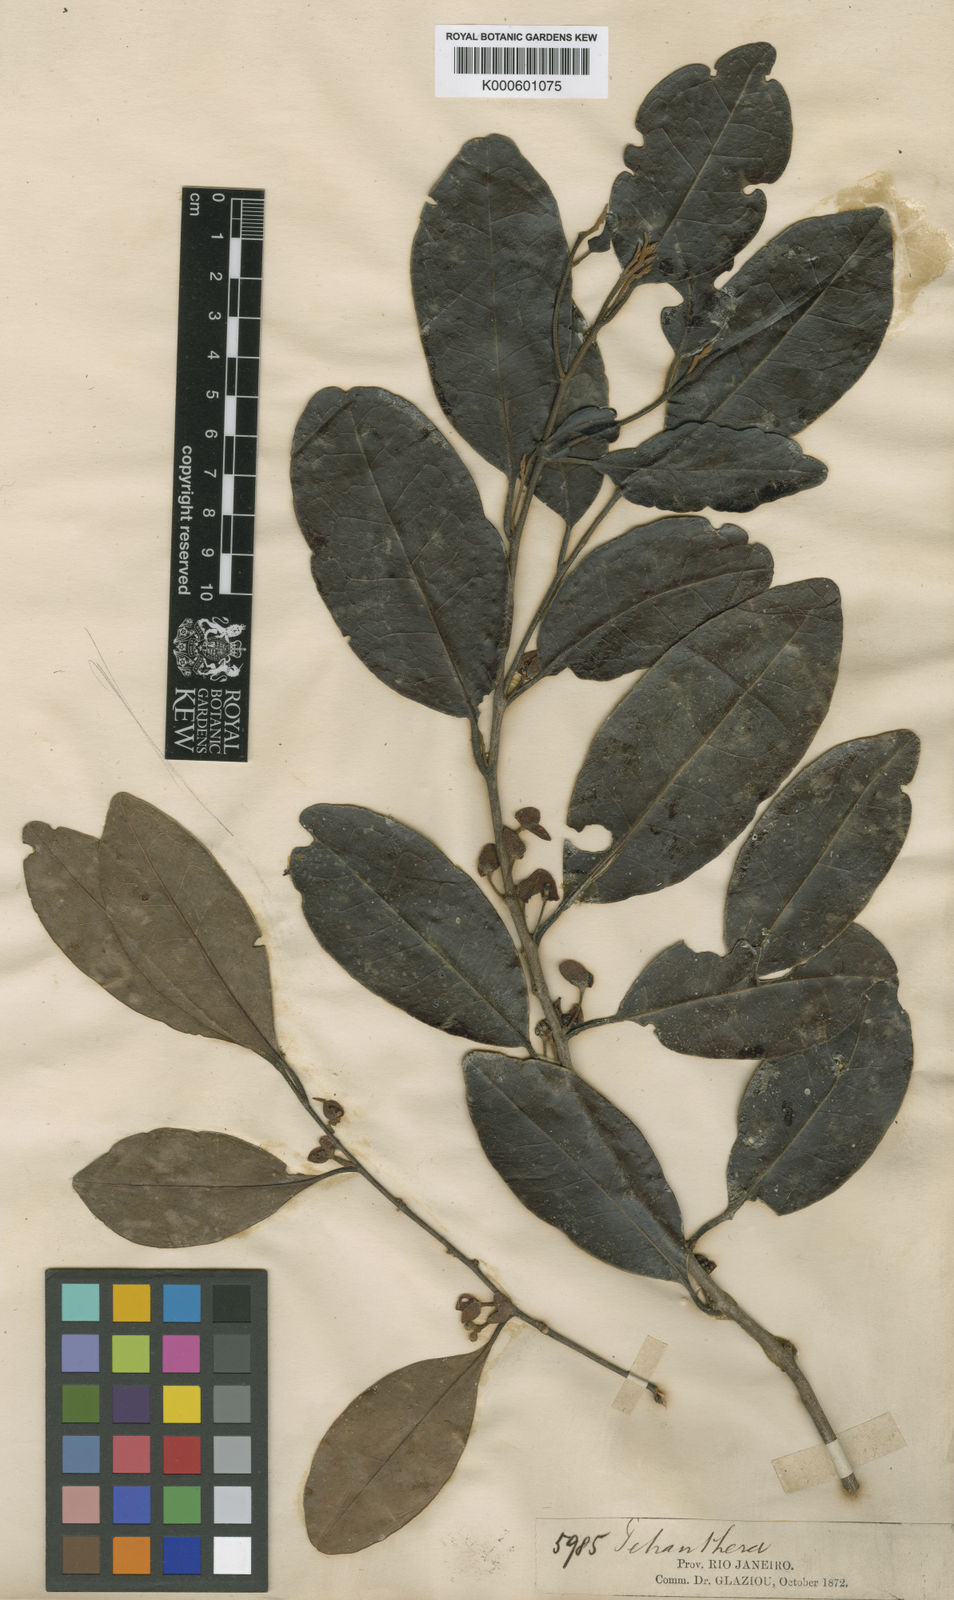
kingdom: Plantae
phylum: Tracheophyta
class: Magnoliopsida
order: Malpighiales
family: Peraceae
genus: Pera
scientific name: Pera glabrata
